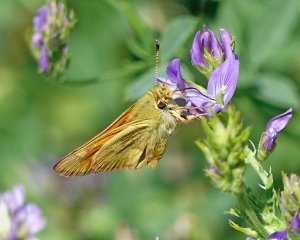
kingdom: Animalia
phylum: Arthropoda
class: Insecta
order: Lepidoptera
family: Hesperiidae
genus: Ochlodes
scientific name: Ochlodes sylvanoides
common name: Woodland Skipper
